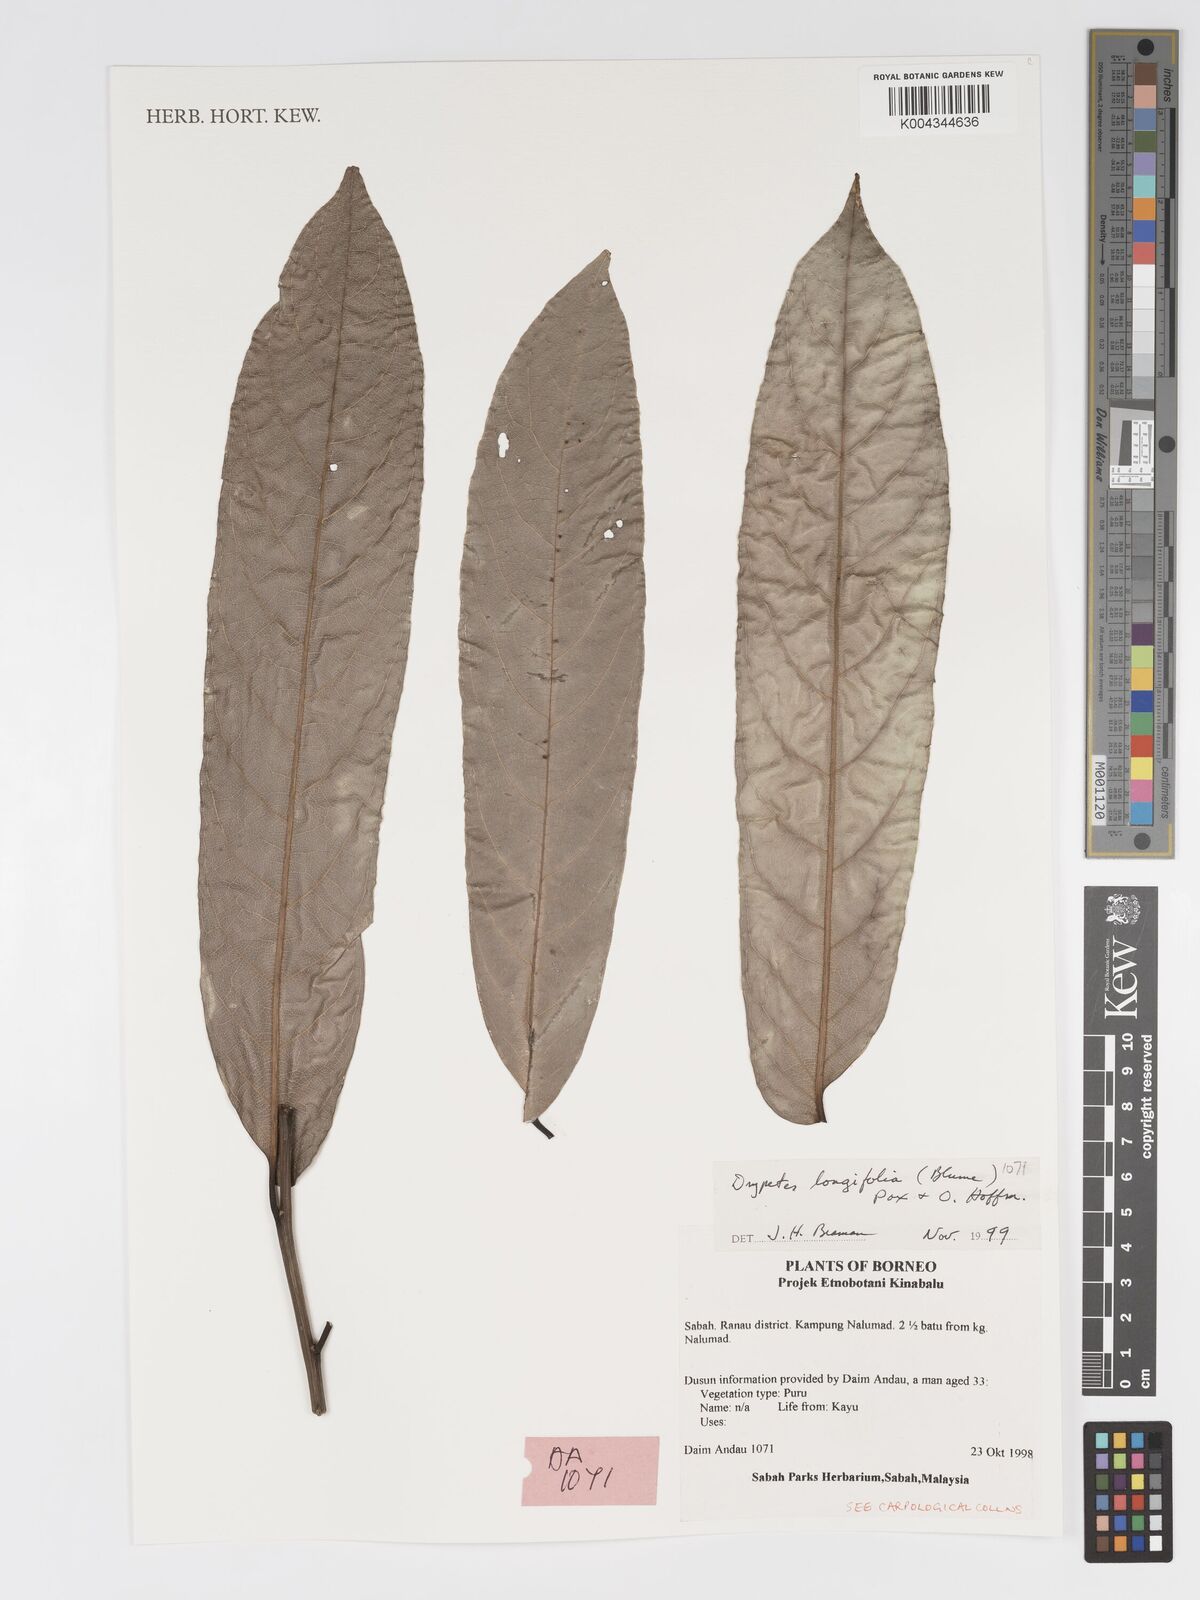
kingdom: Plantae
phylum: Tracheophyta
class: Magnoliopsida
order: Malpighiales
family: Putranjivaceae
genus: Drypetes
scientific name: Drypetes longifolia
